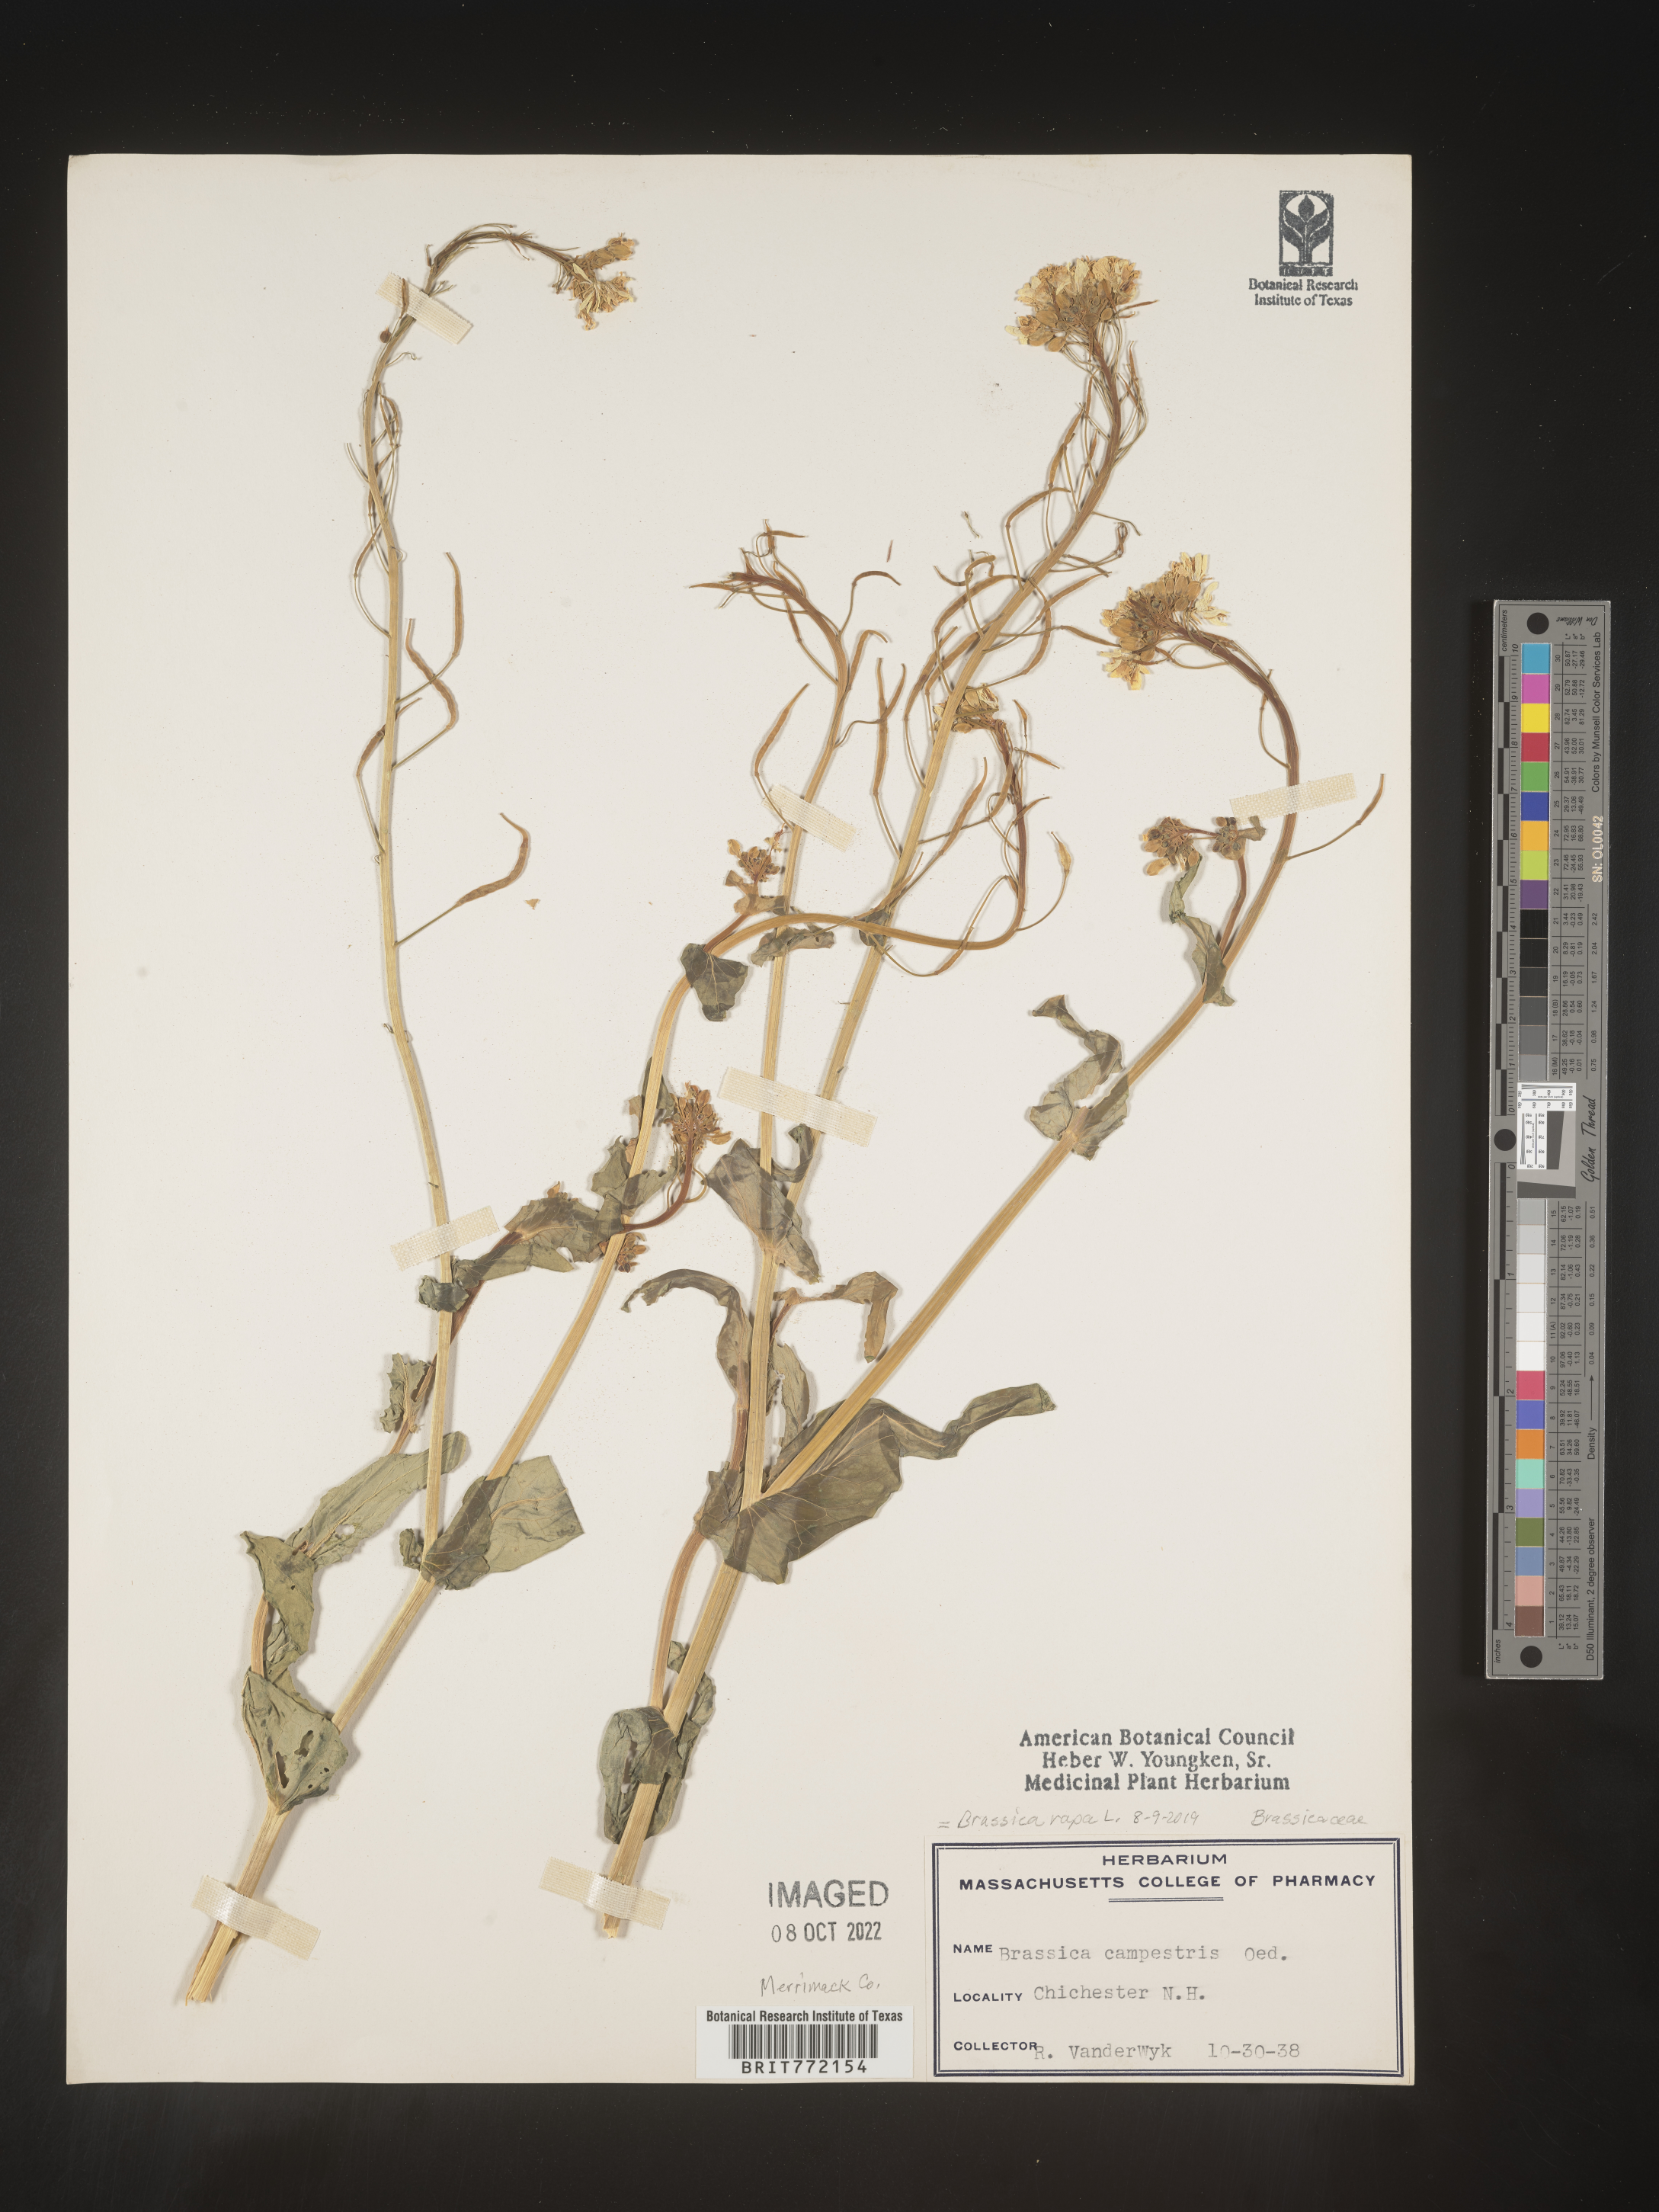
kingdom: Plantae
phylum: Tracheophyta
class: Magnoliopsida
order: Brassicales
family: Brassicaceae
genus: Brassica
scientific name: Brassica rapa
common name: Field mustard
